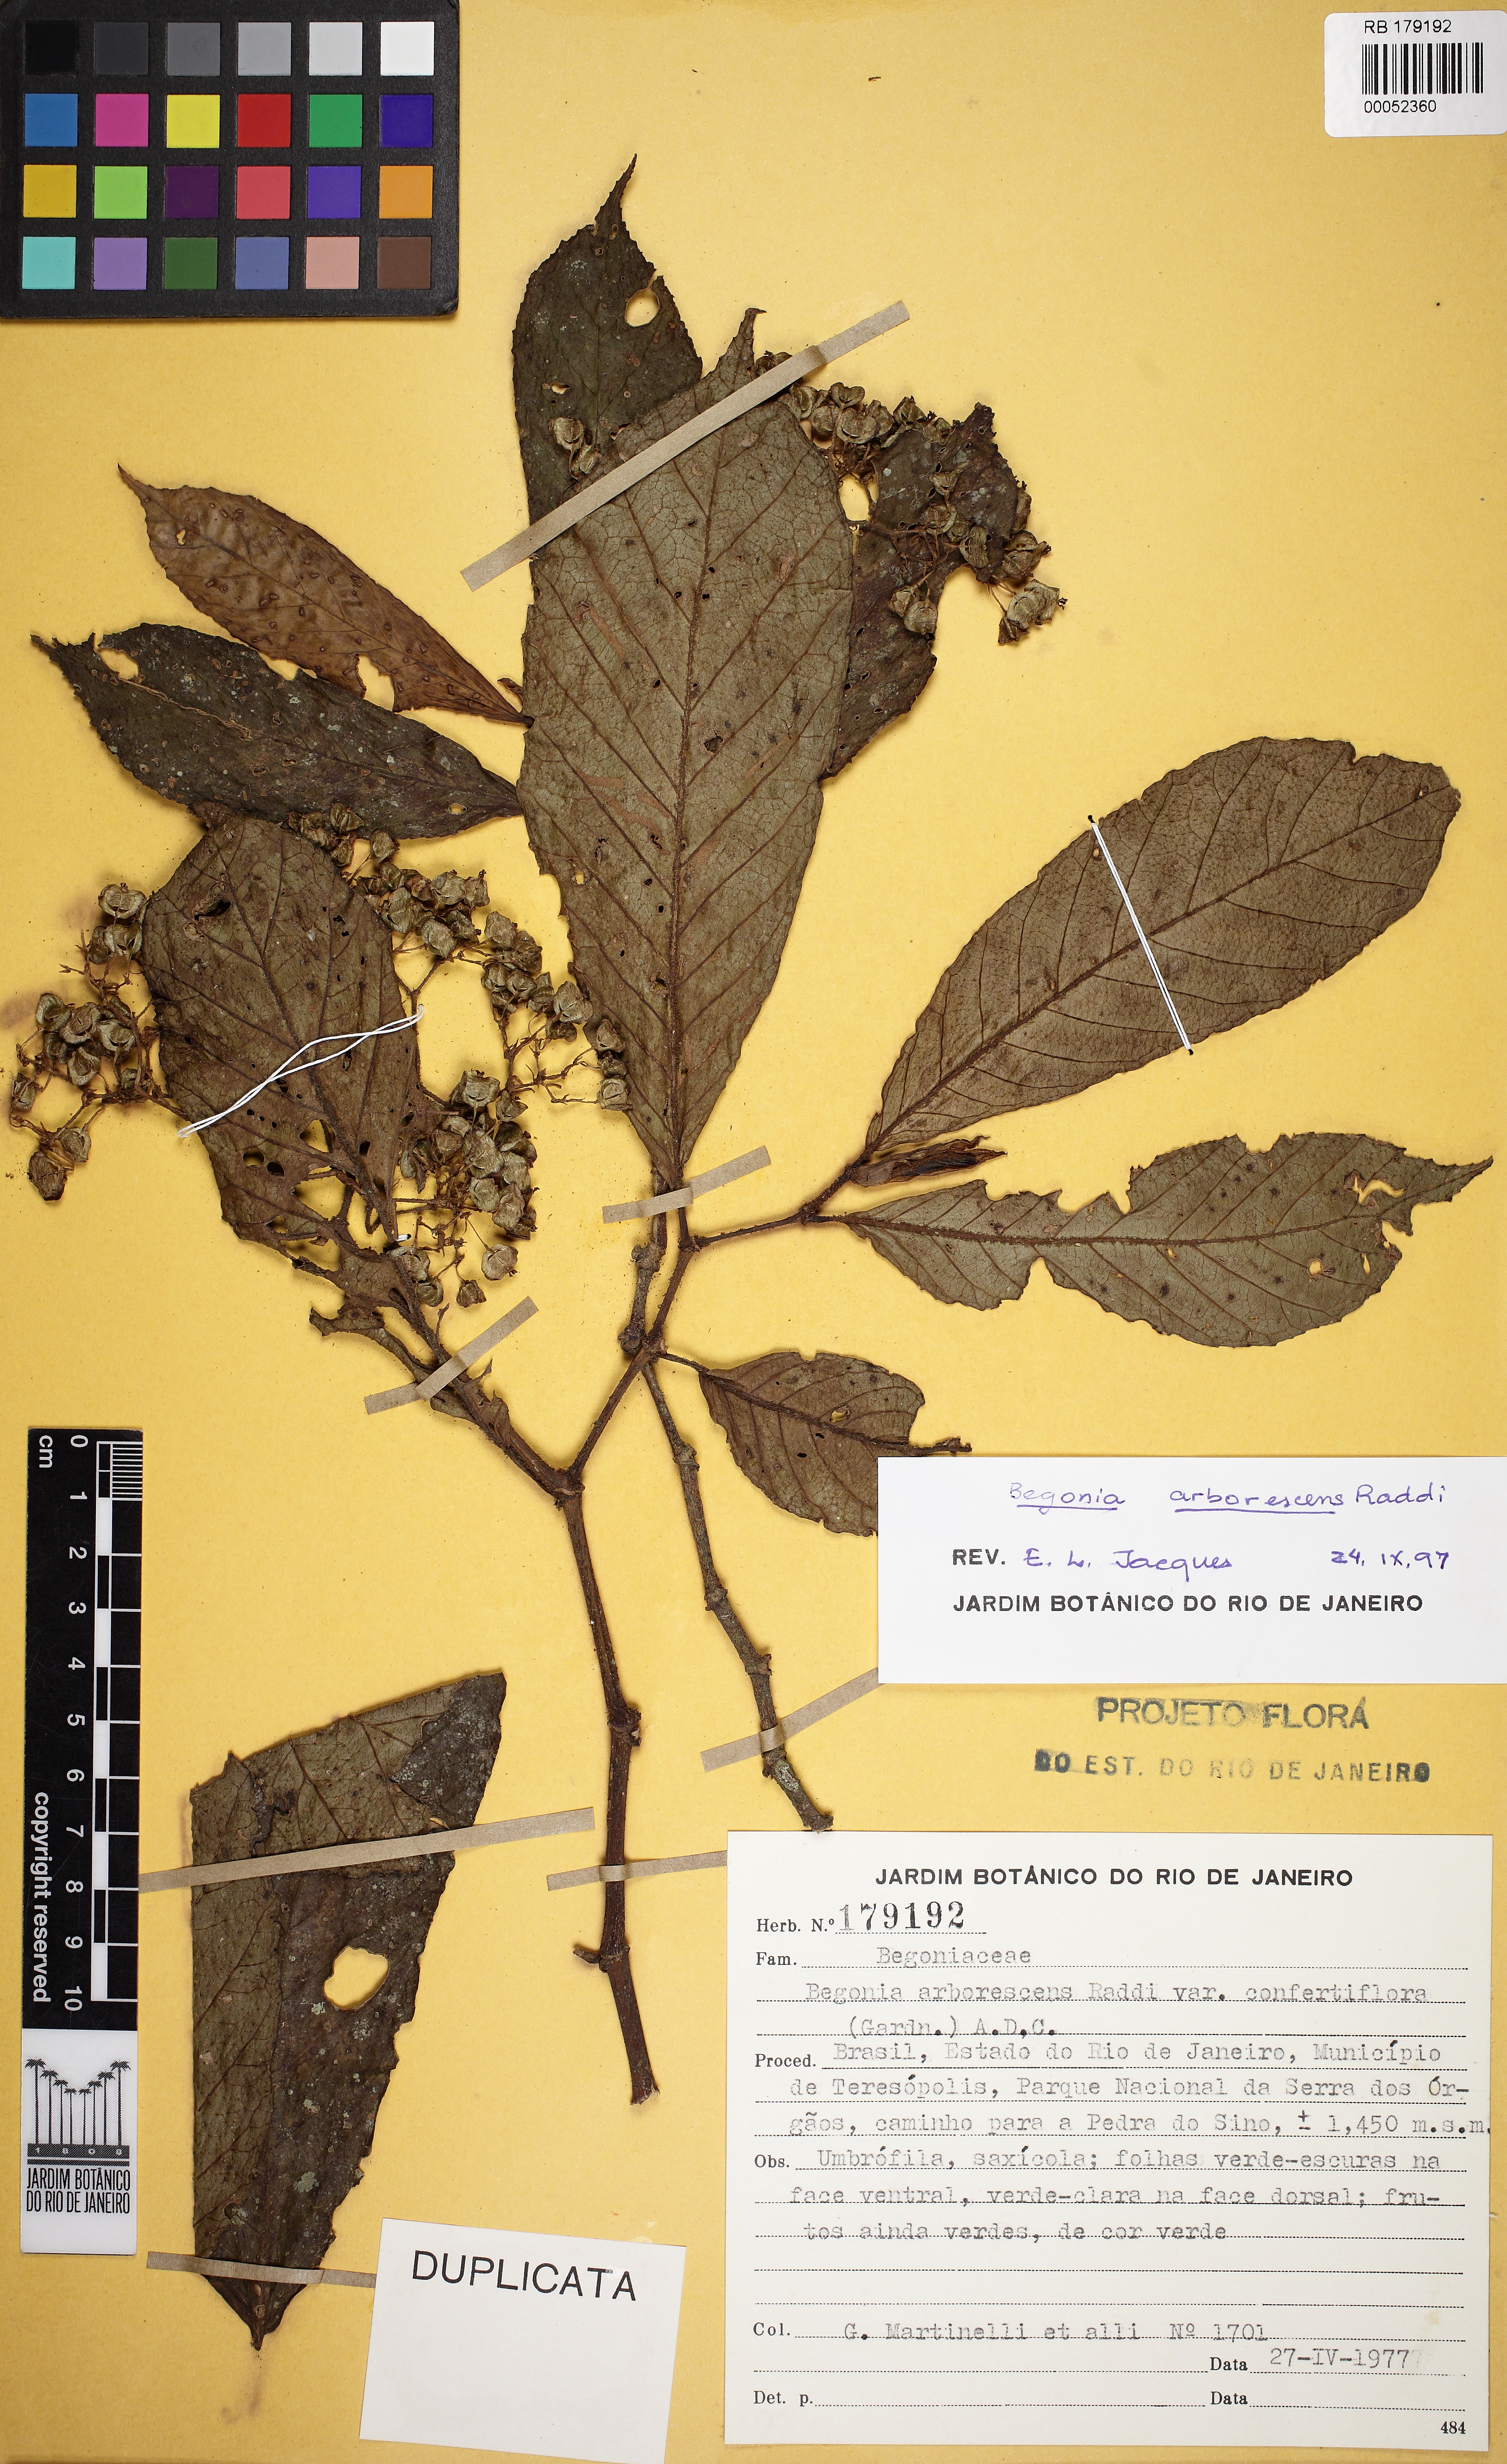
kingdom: Plantae
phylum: Tracheophyta
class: Magnoliopsida
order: Cucurbitales
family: Begoniaceae
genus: Begonia
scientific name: Begonia arborescens
